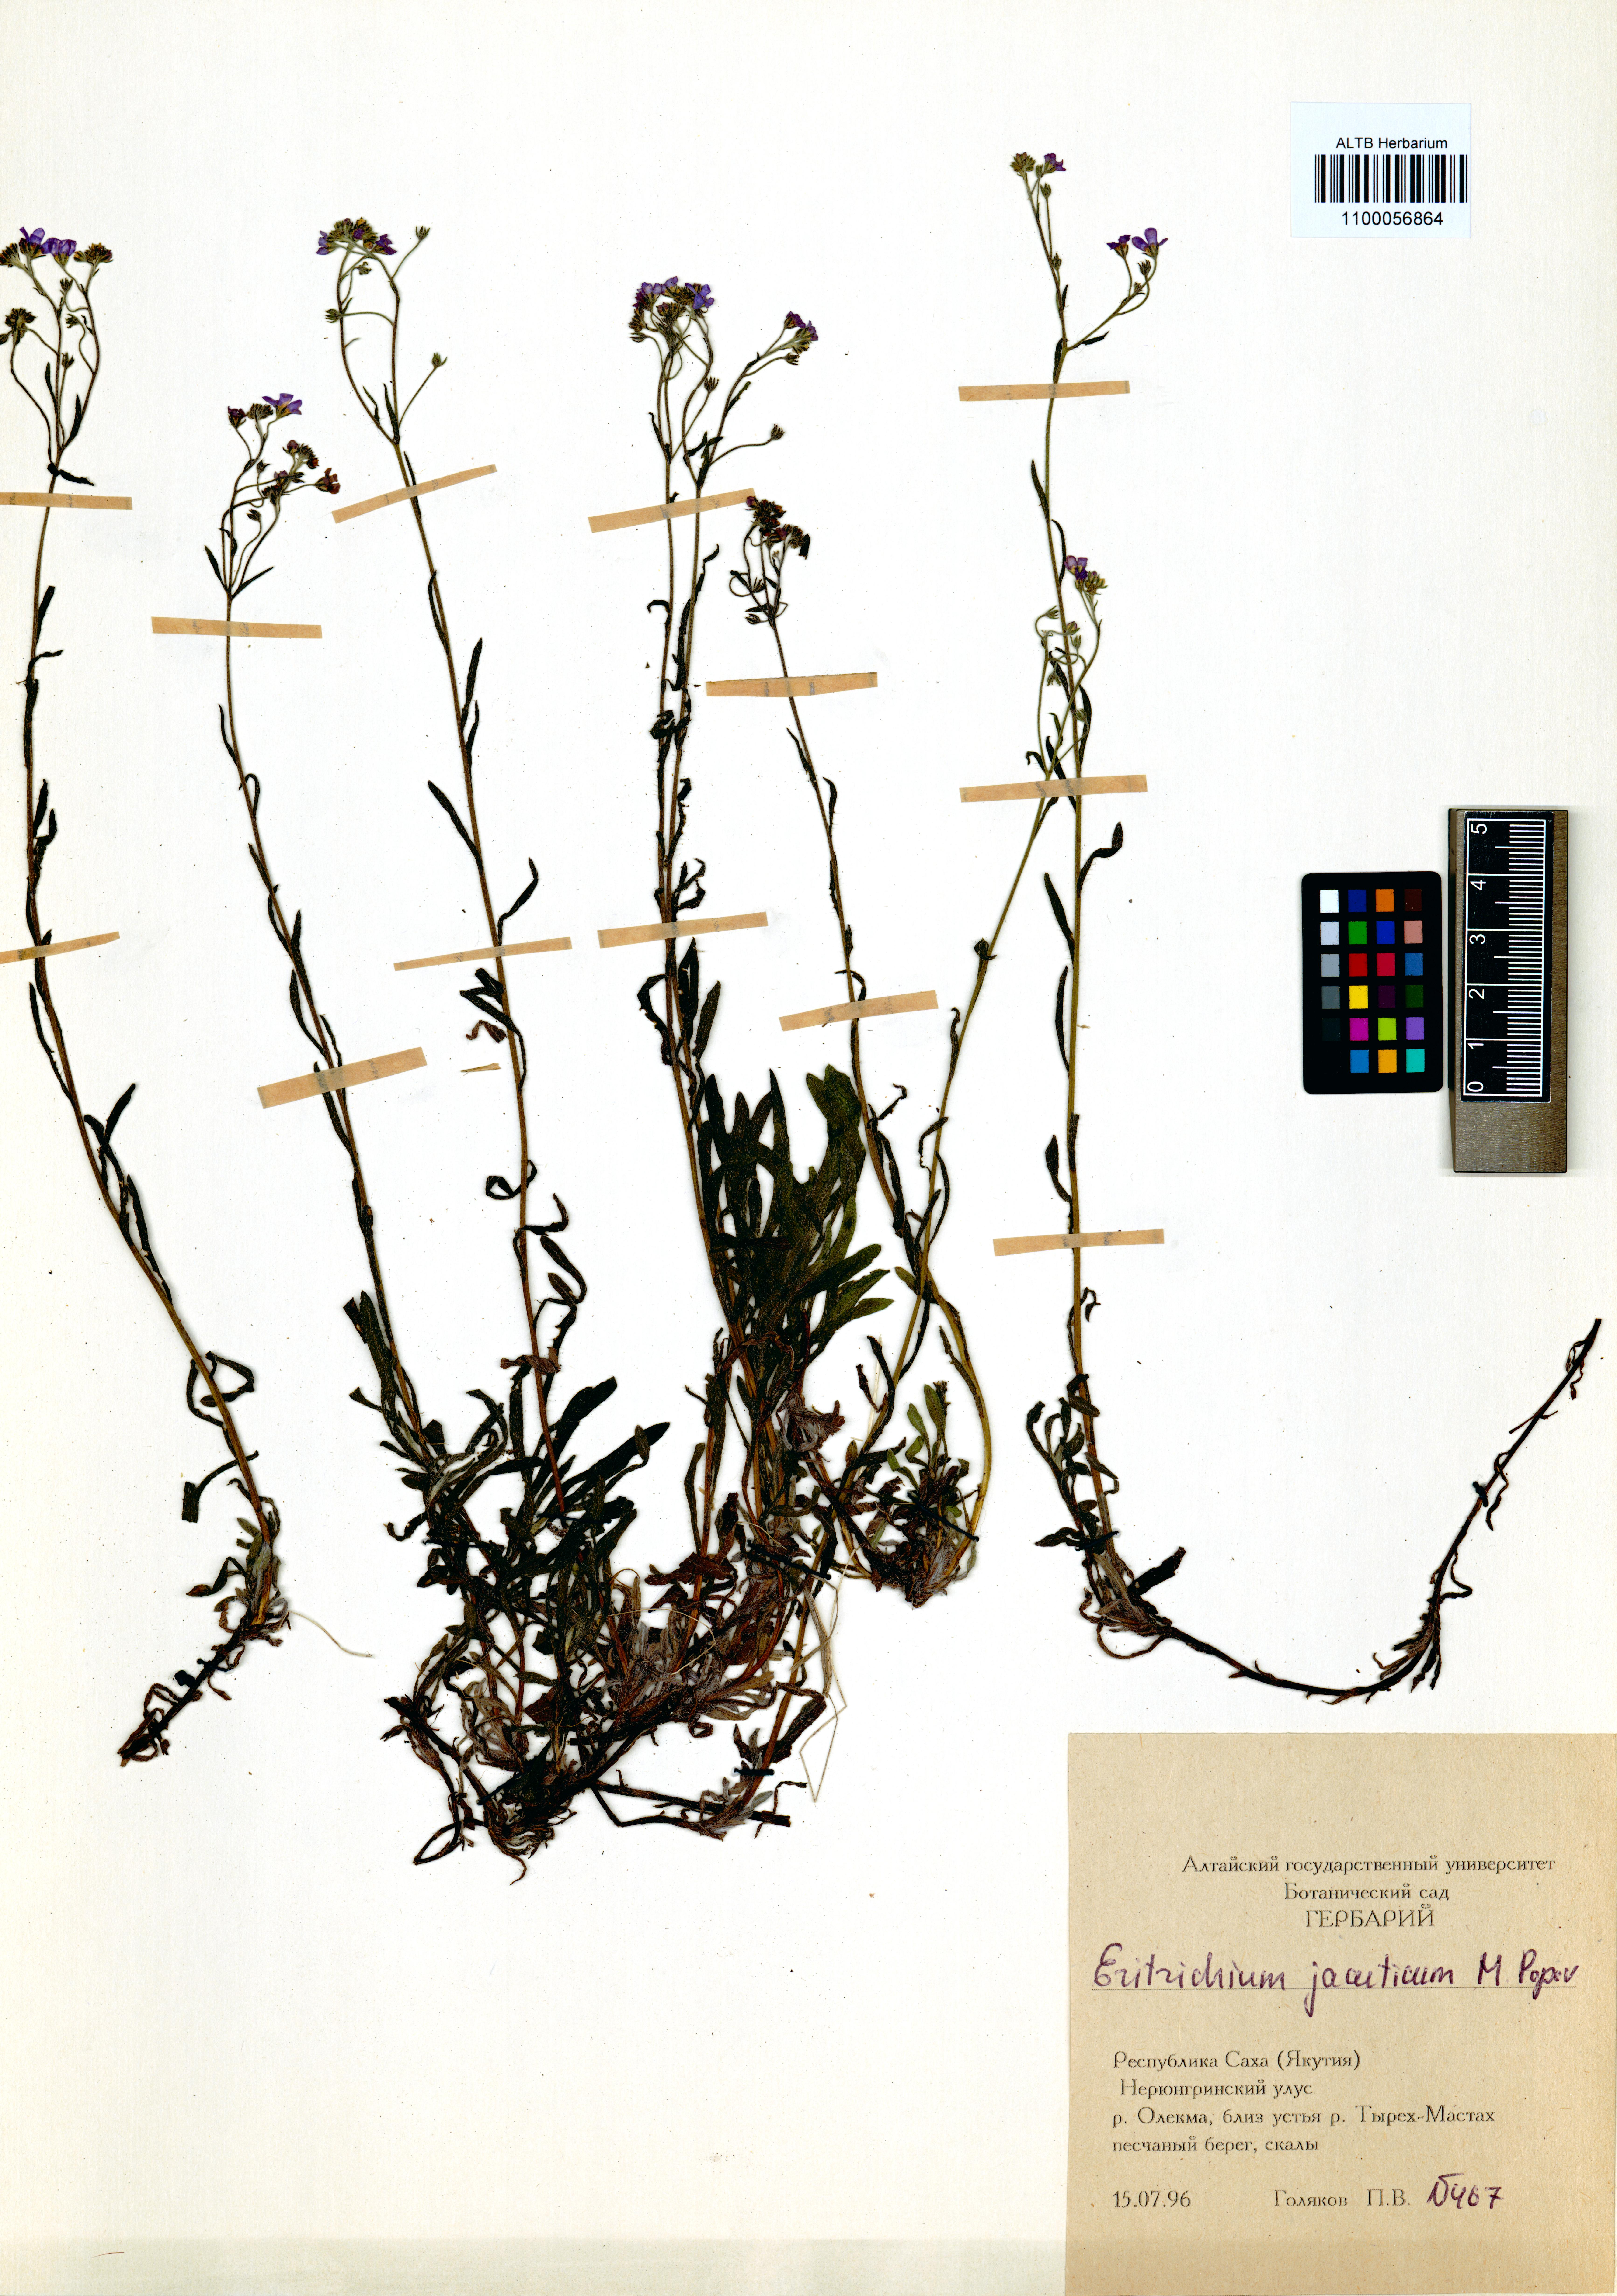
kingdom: Plantae
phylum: Tracheophyta
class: Magnoliopsida
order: Boraginales
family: Boraginaceae
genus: Eritrichium
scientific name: Eritrichium jacuticum
